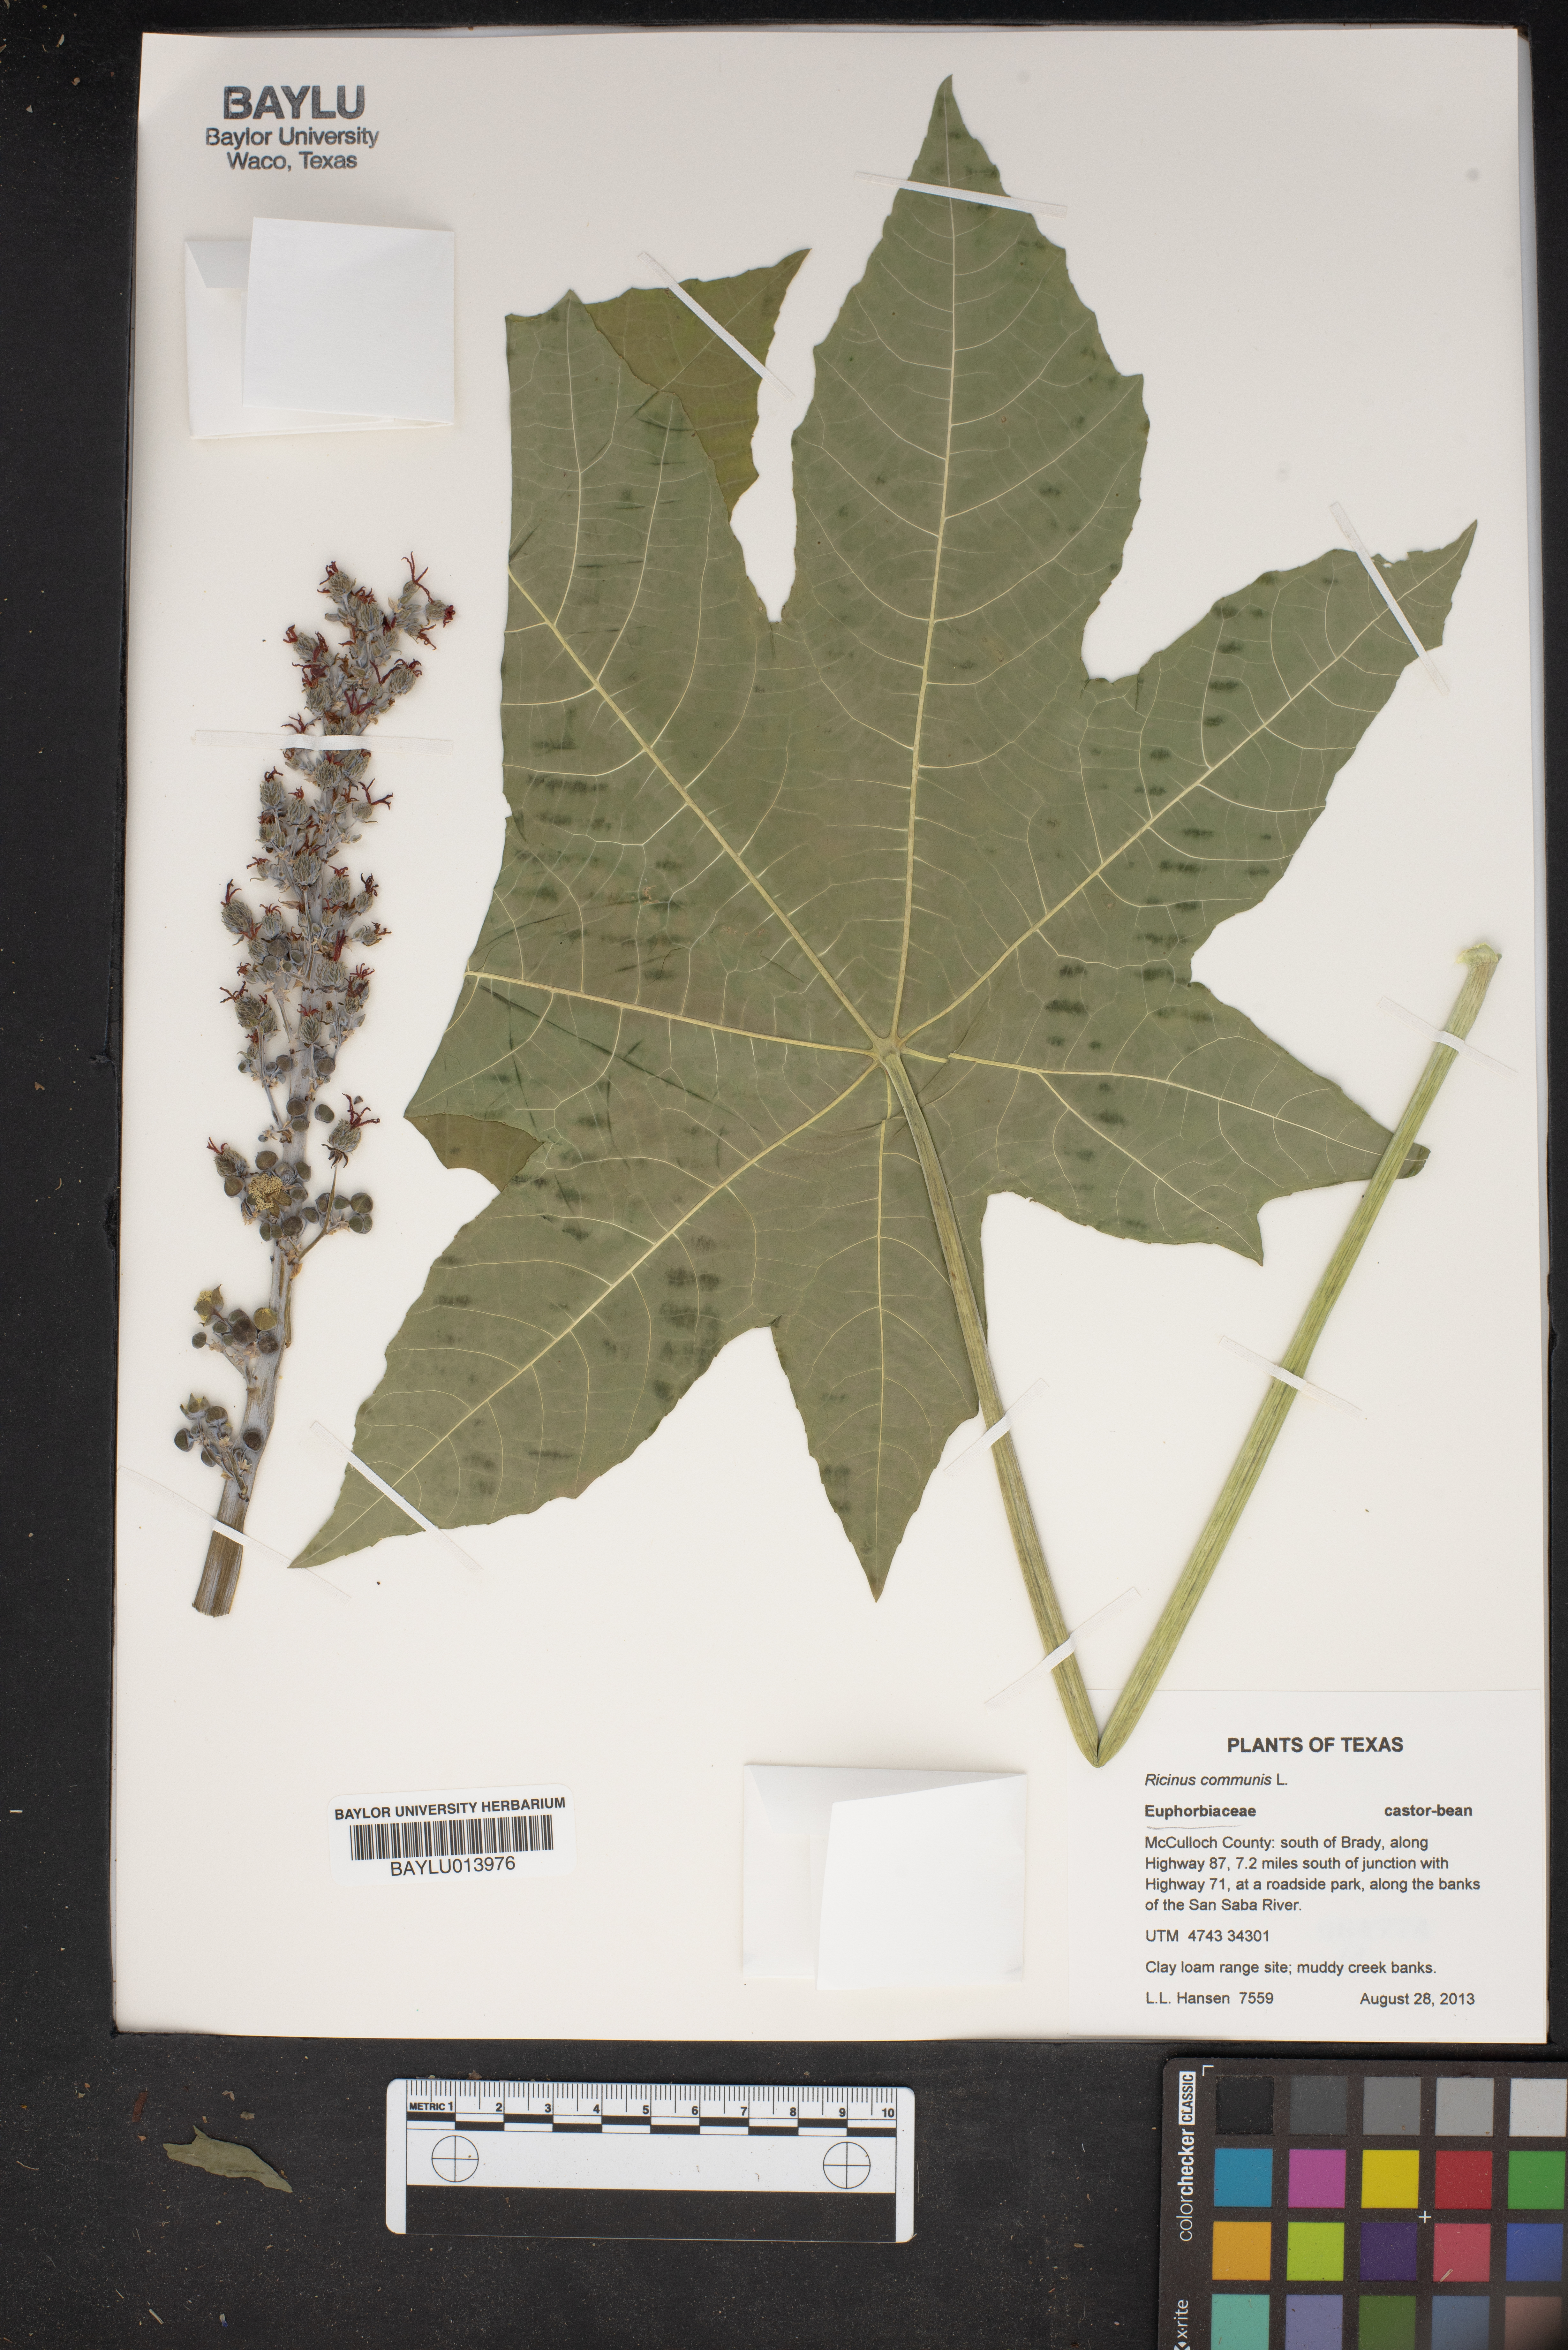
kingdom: Plantae
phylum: Tracheophyta
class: Magnoliopsida
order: Malpighiales
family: Euphorbiaceae
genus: Ricinus
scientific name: Ricinus communis
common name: Castor-oil-plant
